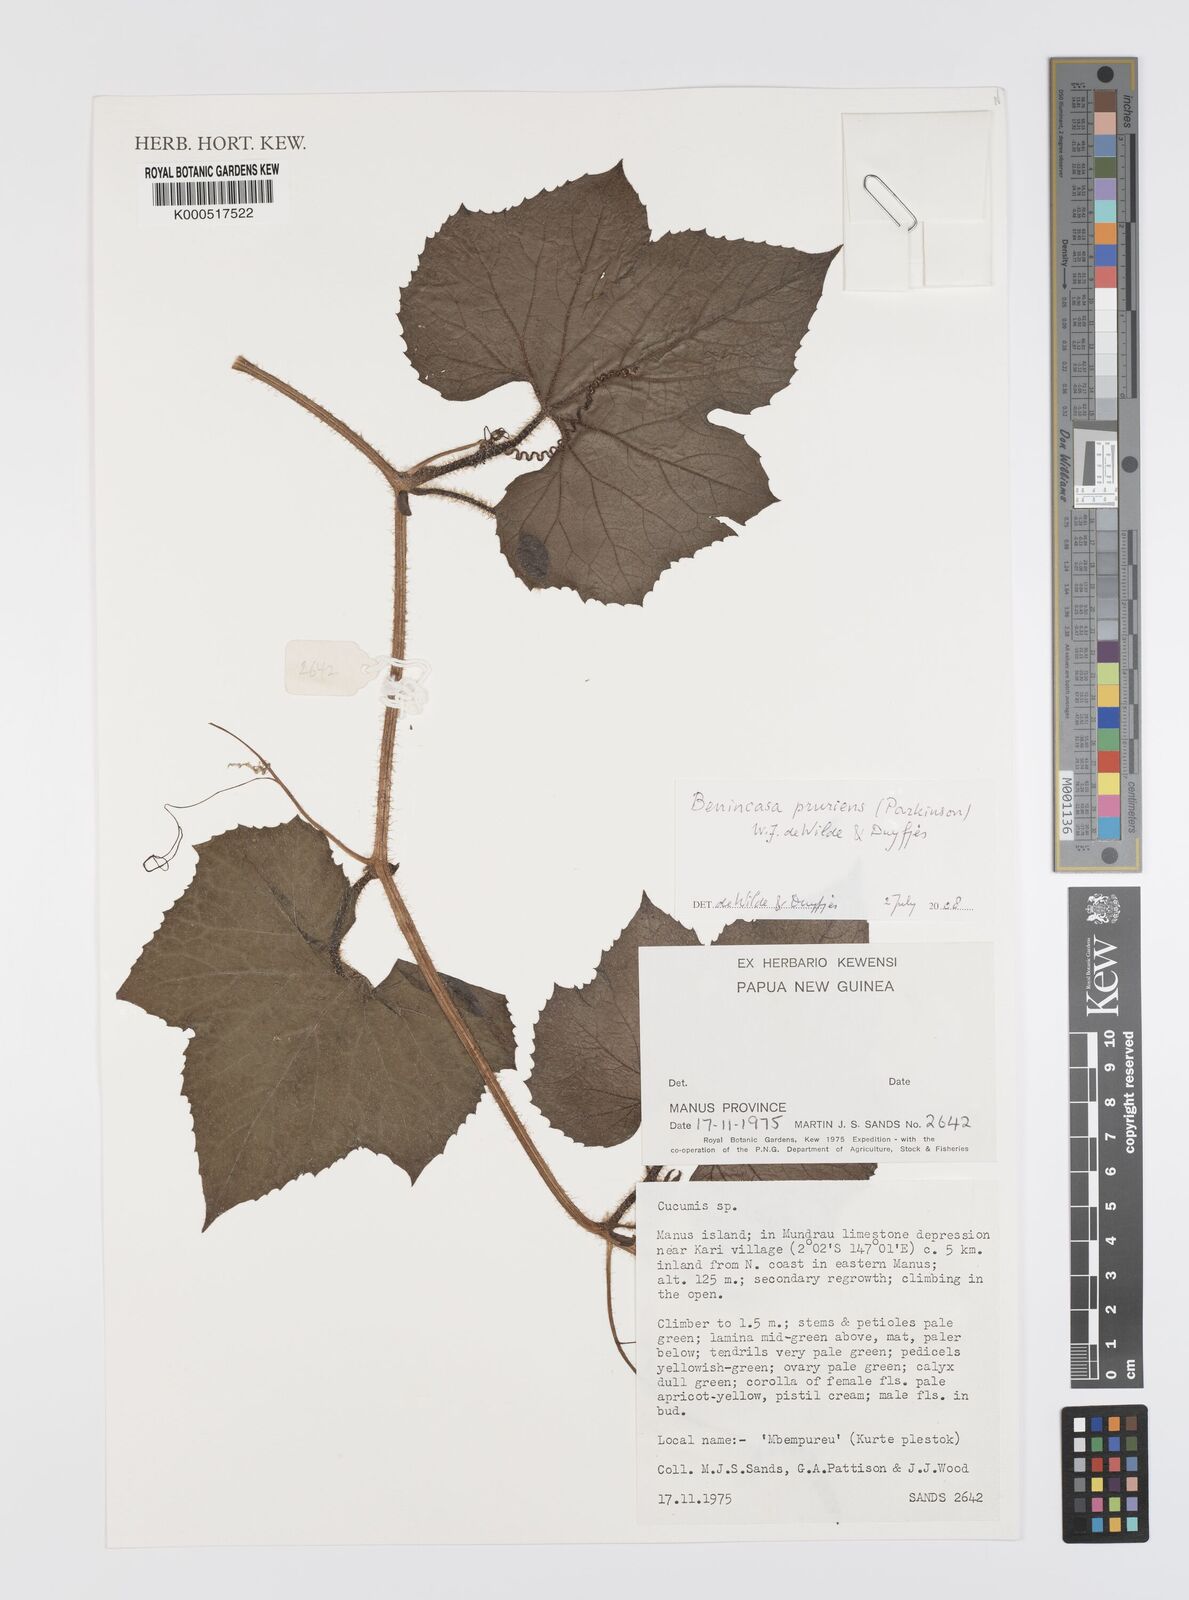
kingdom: Plantae
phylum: Tracheophyta
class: Magnoliopsida
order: Cucurbitales
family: Cucurbitaceae
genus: Benincasa
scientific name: Benincasa pruriens
